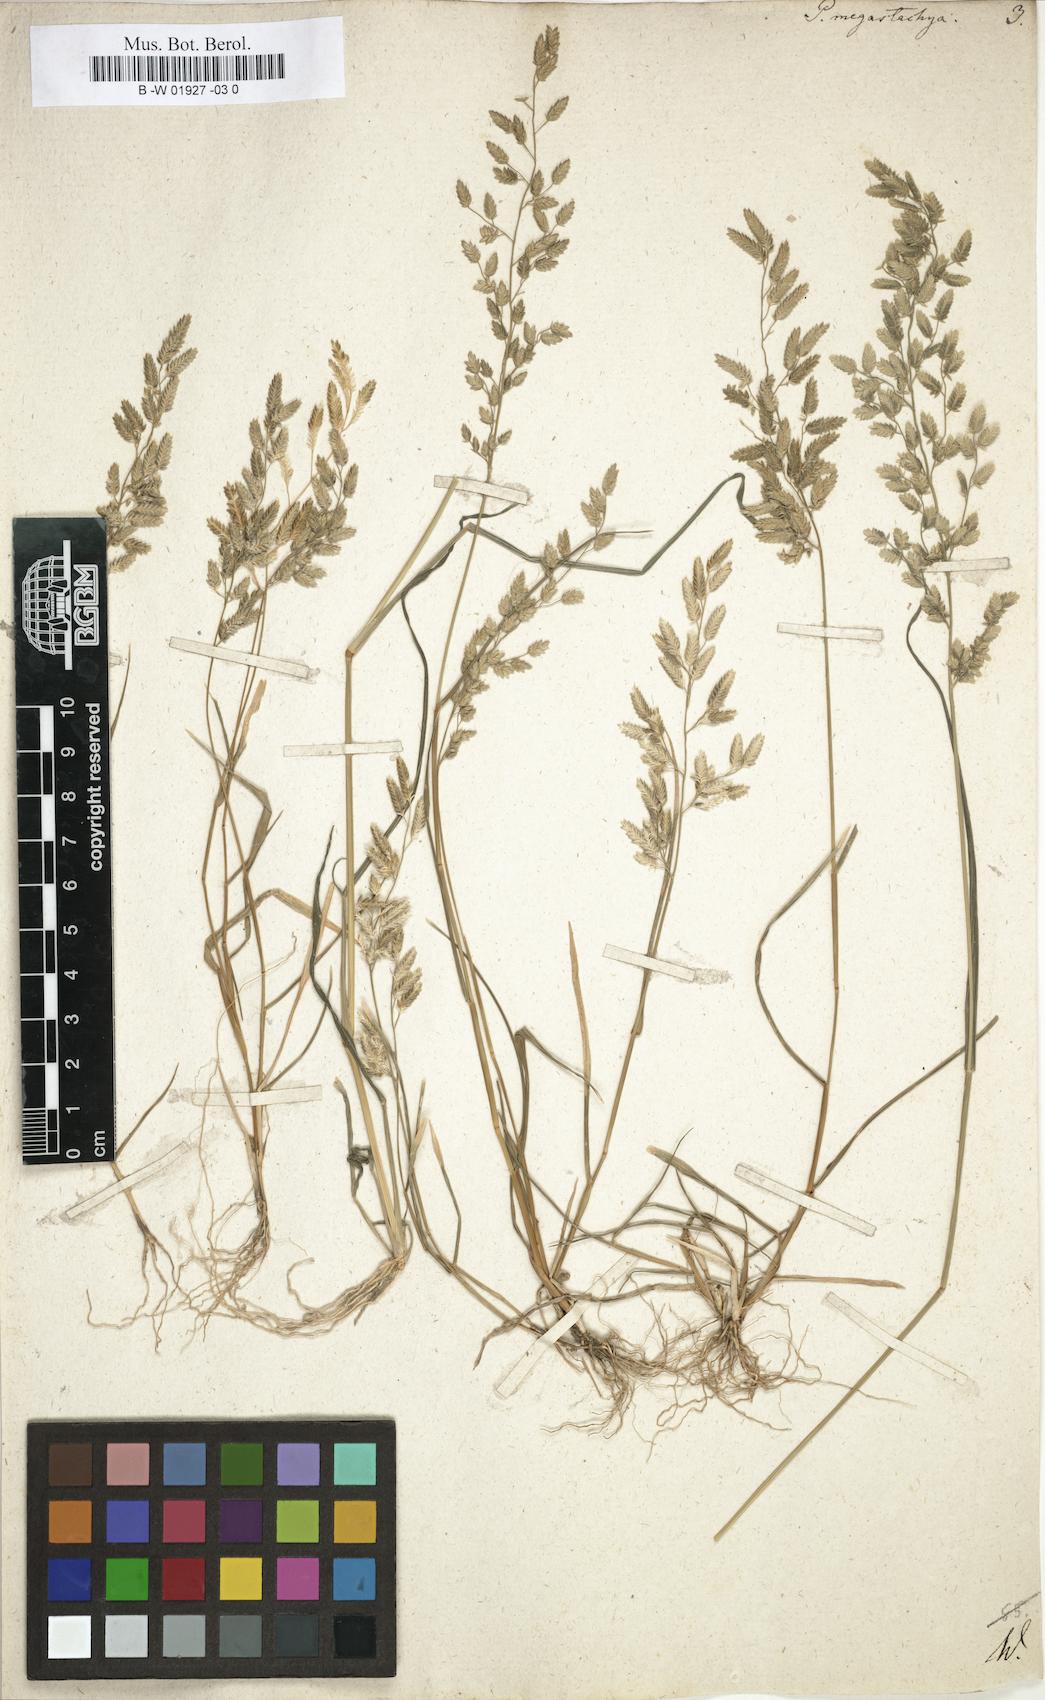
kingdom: Plantae
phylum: Tracheophyta
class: Liliopsida
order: Poales
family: Poaceae
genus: Eragrostis
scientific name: Eragrostis cilianensis
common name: Stinkgrass
